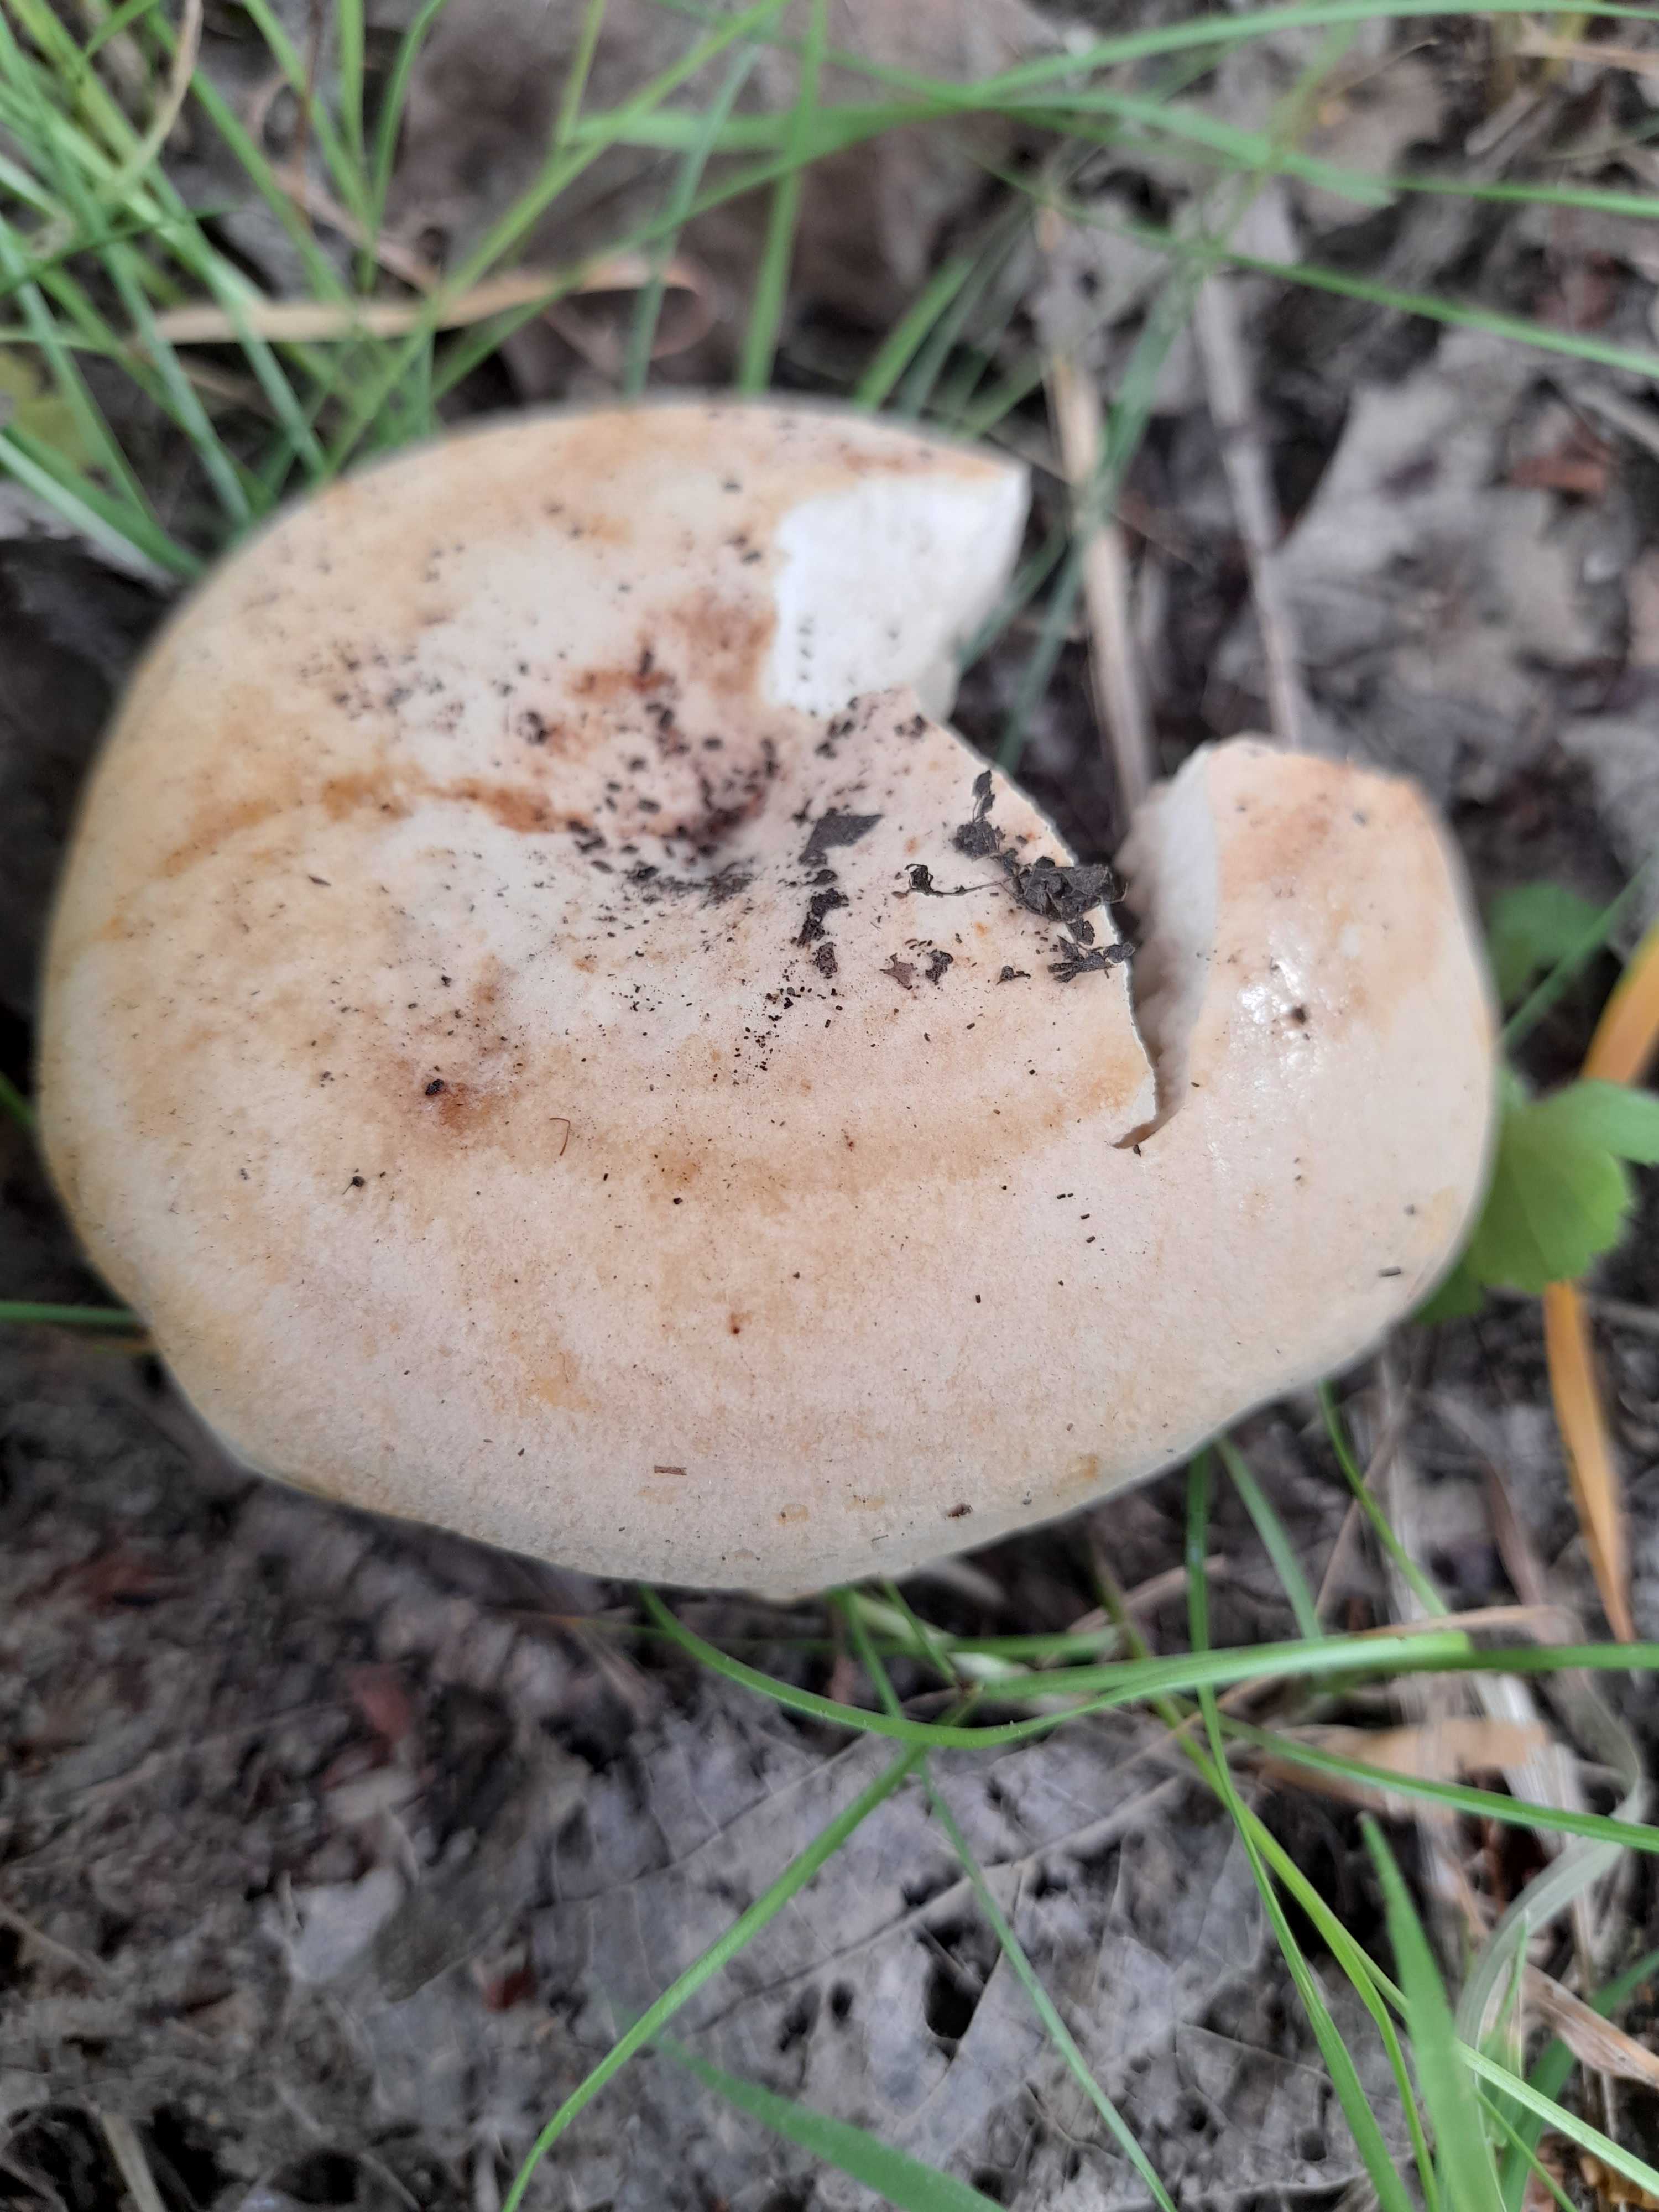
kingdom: Fungi
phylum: Basidiomycota
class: Agaricomycetes
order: Russulales
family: Russulaceae
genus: Lactarius
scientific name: Lactarius evosmus
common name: bæltet mælkehat
